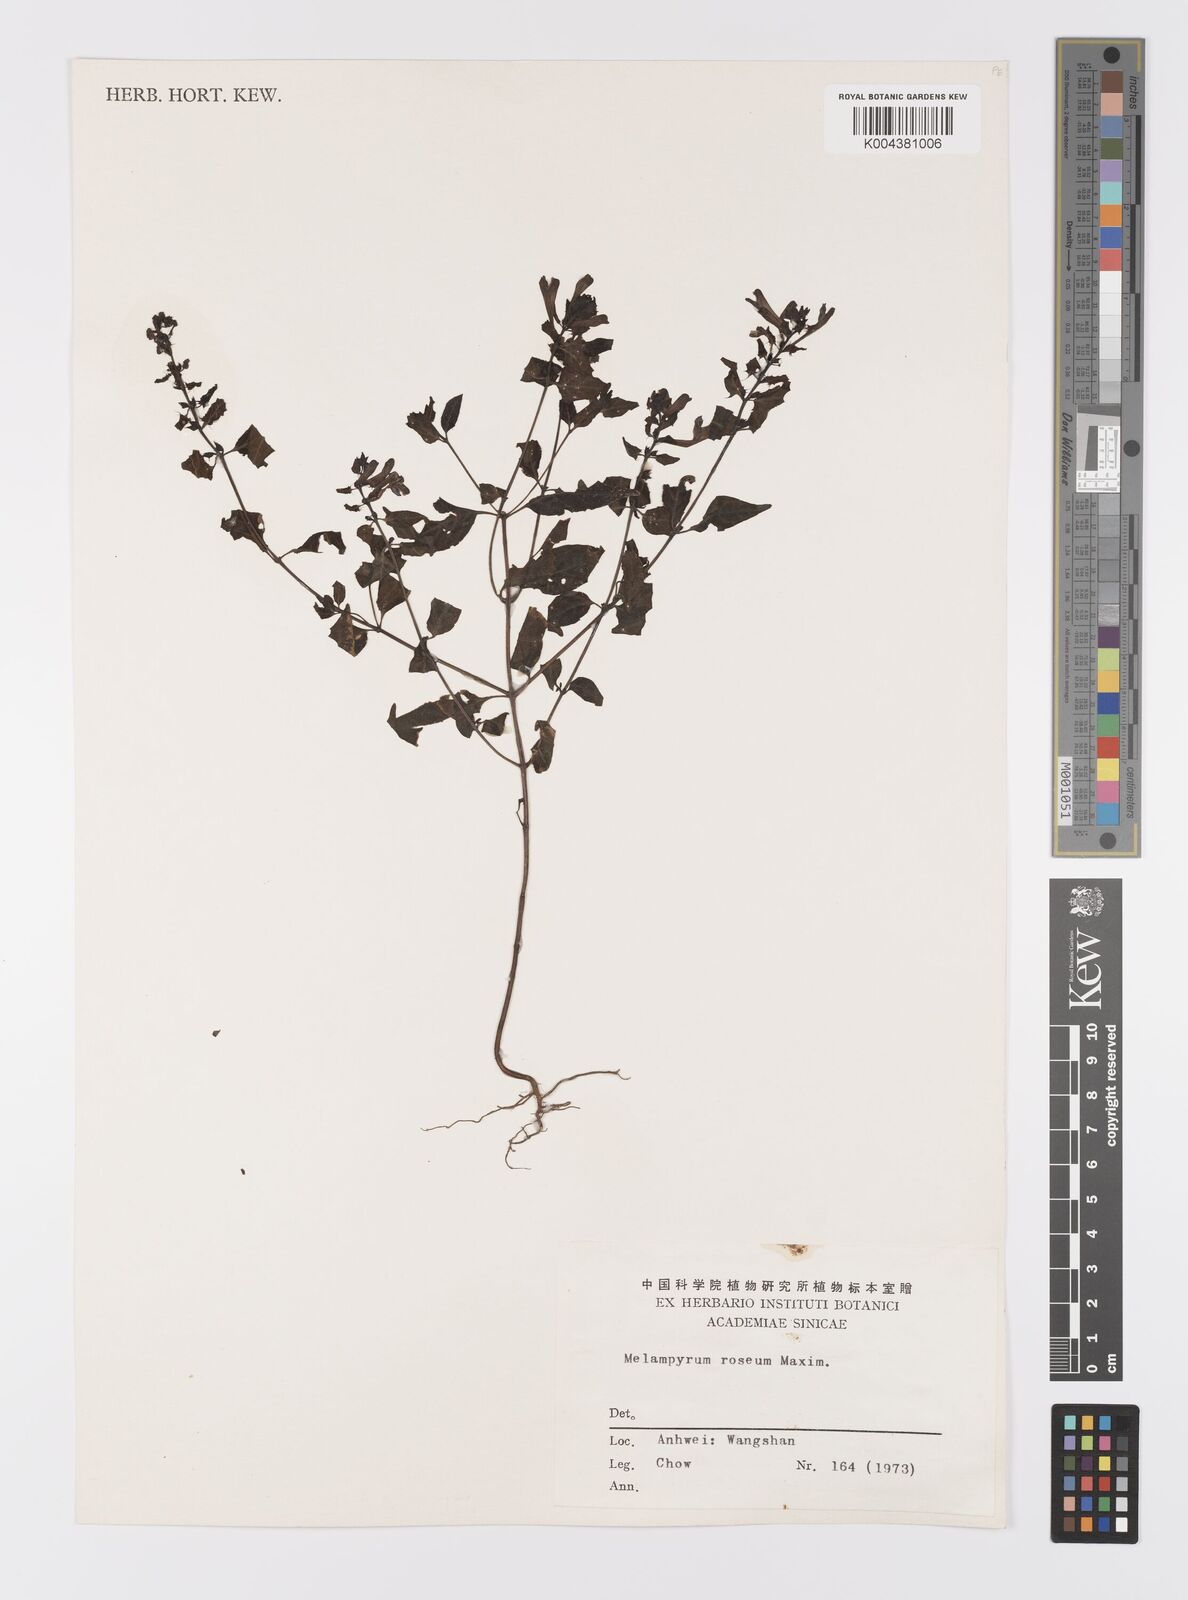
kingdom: Plantae
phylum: Tracheophyta
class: Magnoliopsida
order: Lamiales
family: Orobanchaceae
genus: Melampyrum
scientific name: Melampyrum roseum
